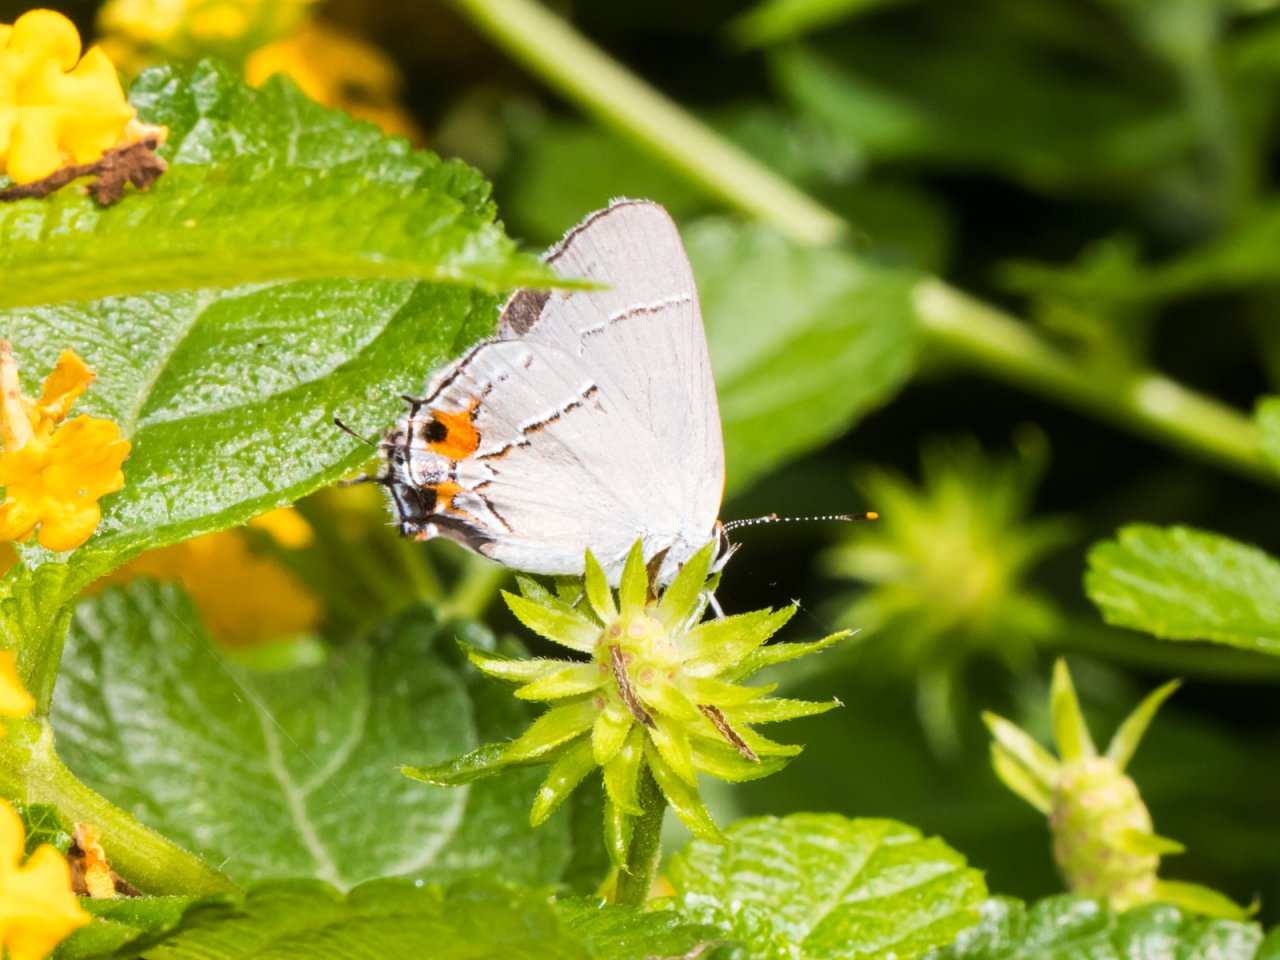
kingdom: Animalia
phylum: Arthropoda
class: Insecta
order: Lepidoptera
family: Lycaenidae
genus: Strymon
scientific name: Strymon melinus
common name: Gray Hairstreak
